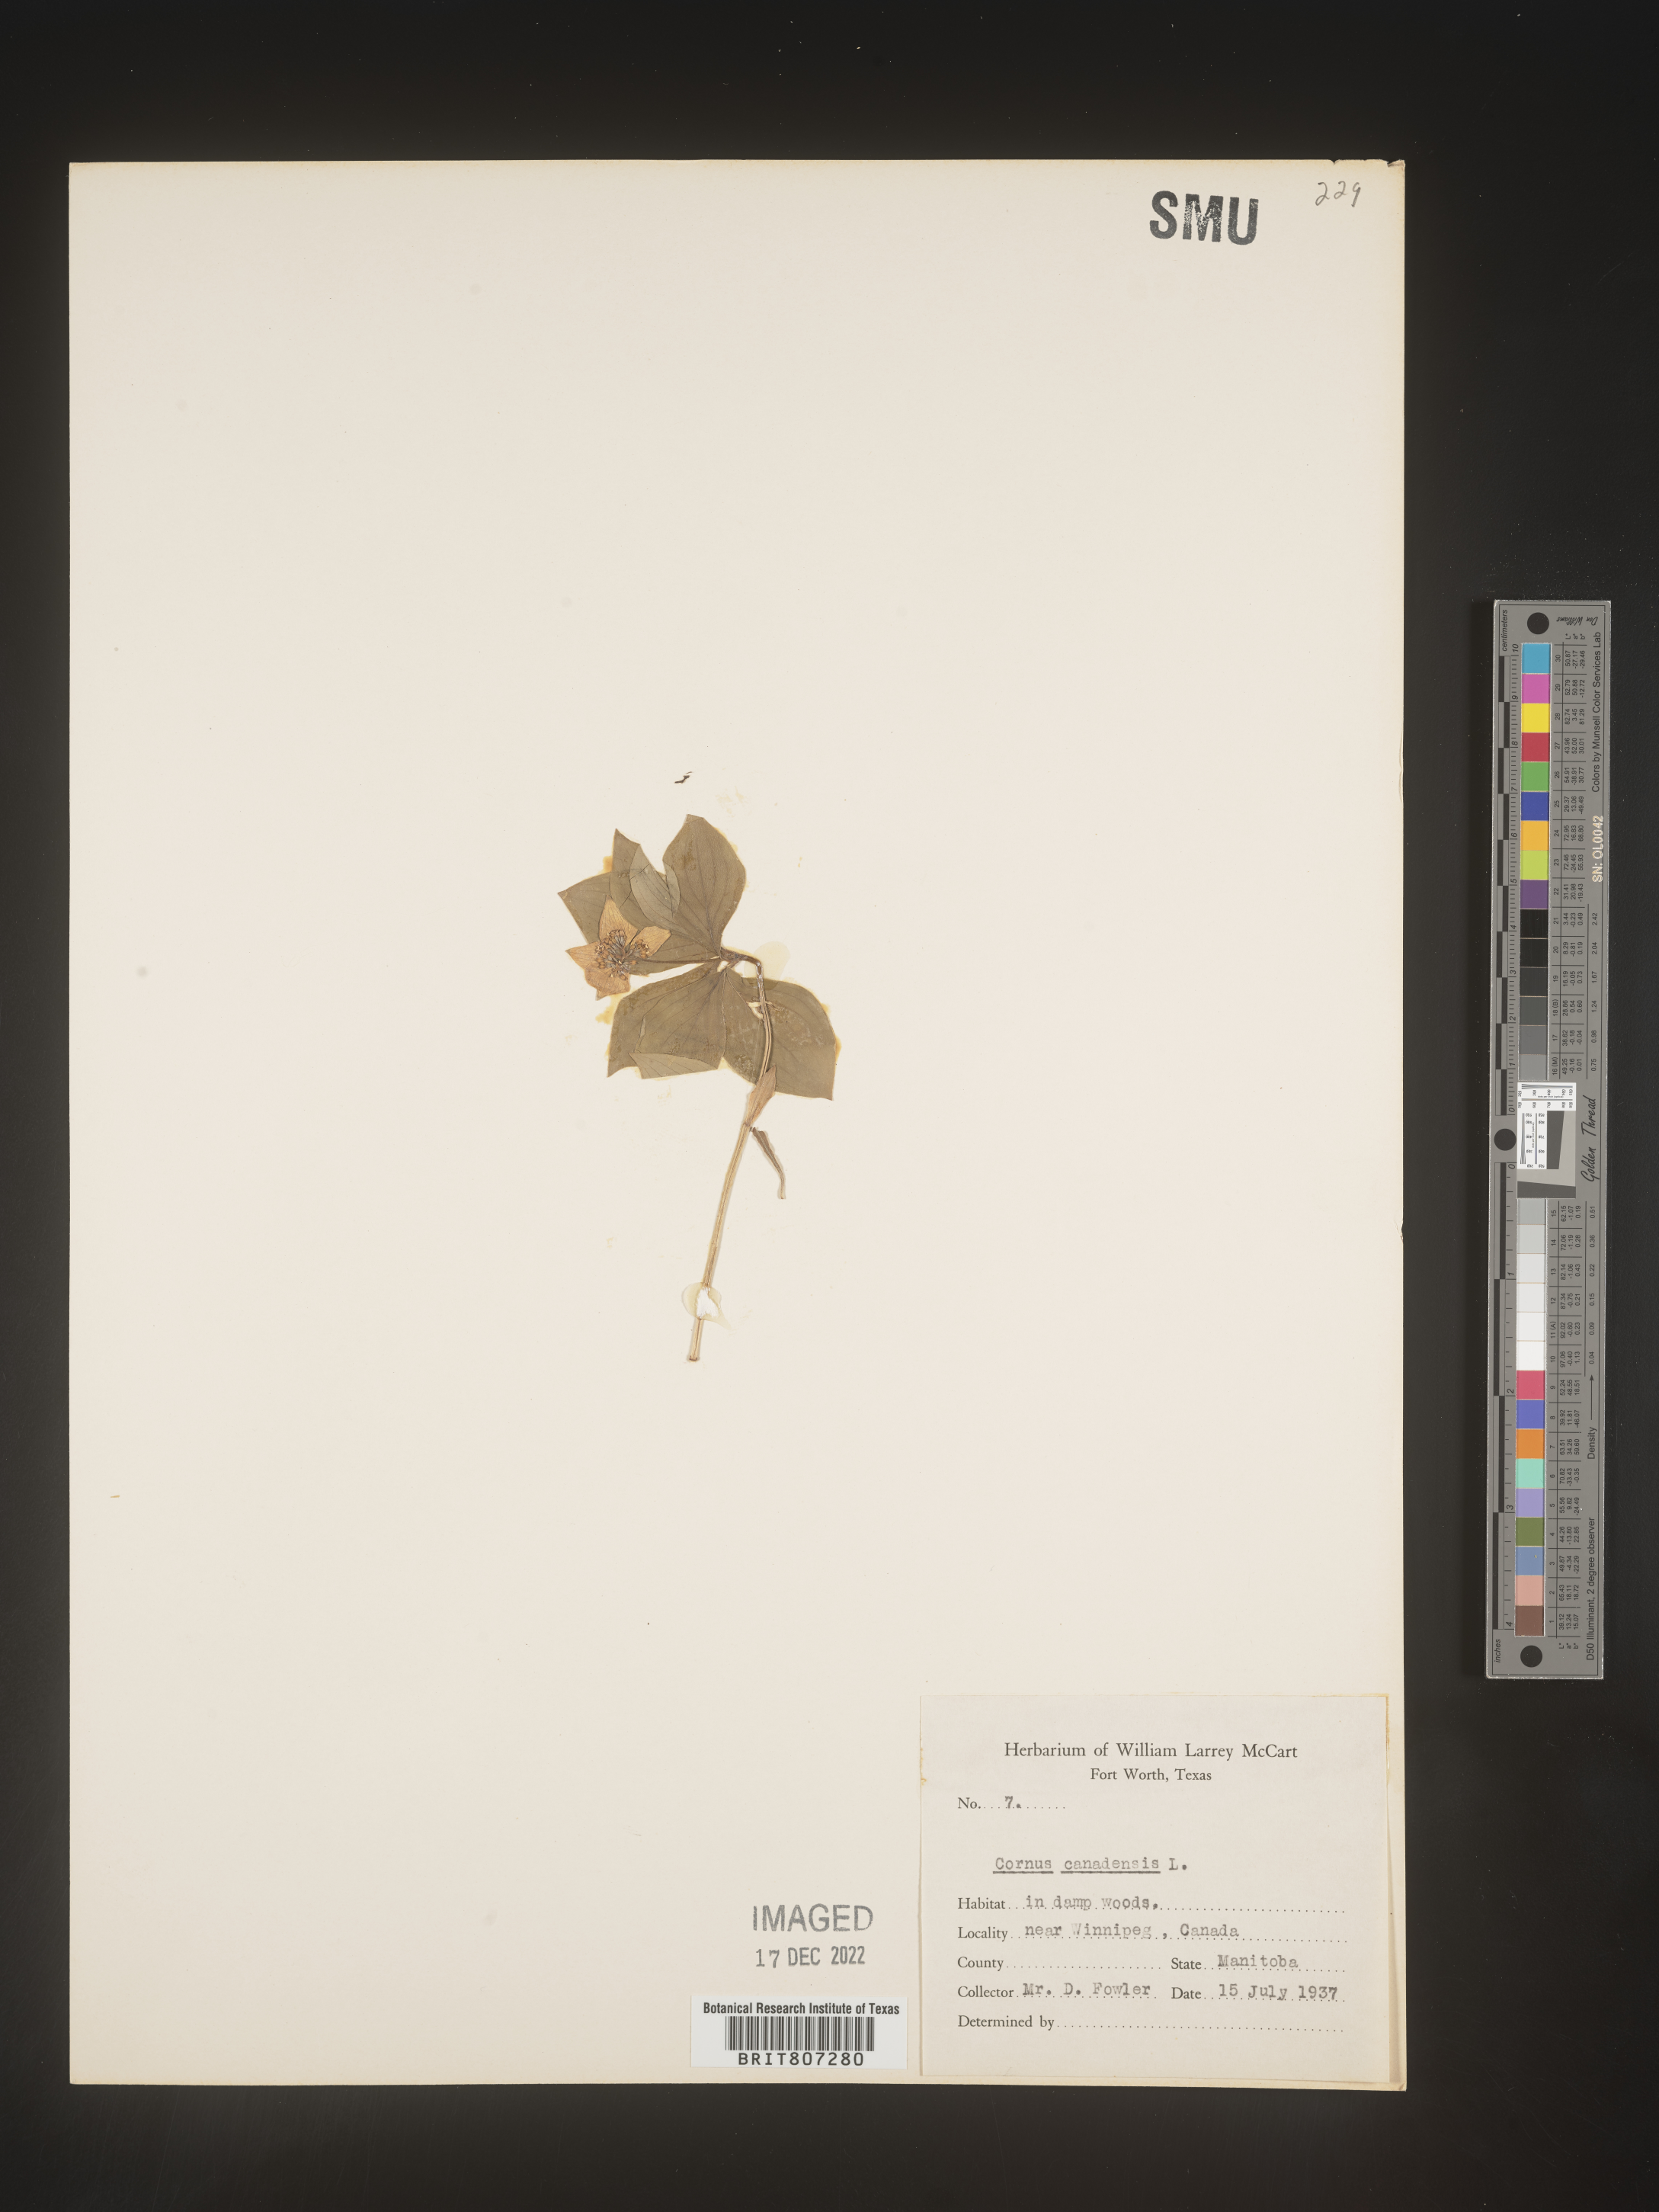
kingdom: Plantae
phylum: Tracheophyta
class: Magnoliopsida
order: Cornales
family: Cornaceae
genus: Cornus
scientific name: Cornus canadensis
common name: Creeping dogwood
